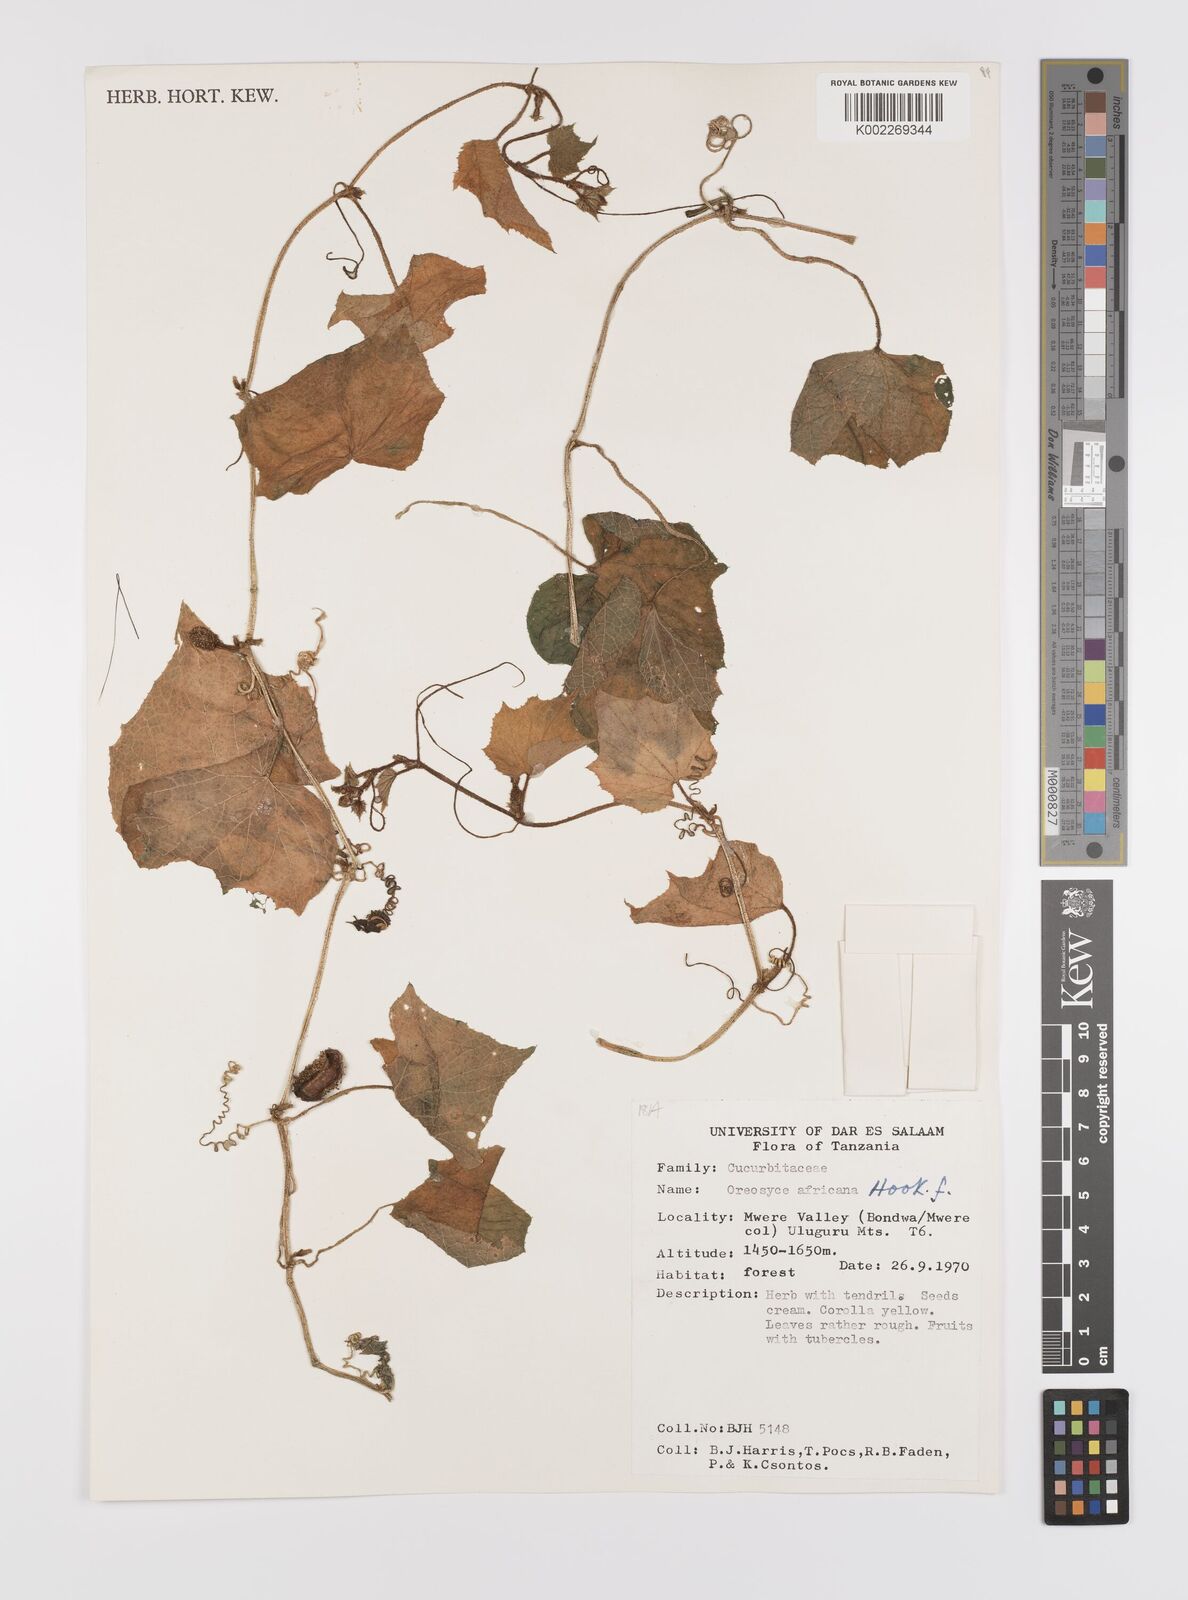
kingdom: Plantae
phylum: Tracheophyta
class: Magnoliopsida
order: Cucurbitales
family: Cucurbitaceae
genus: Cucumis
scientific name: Cucumis oreosyce
